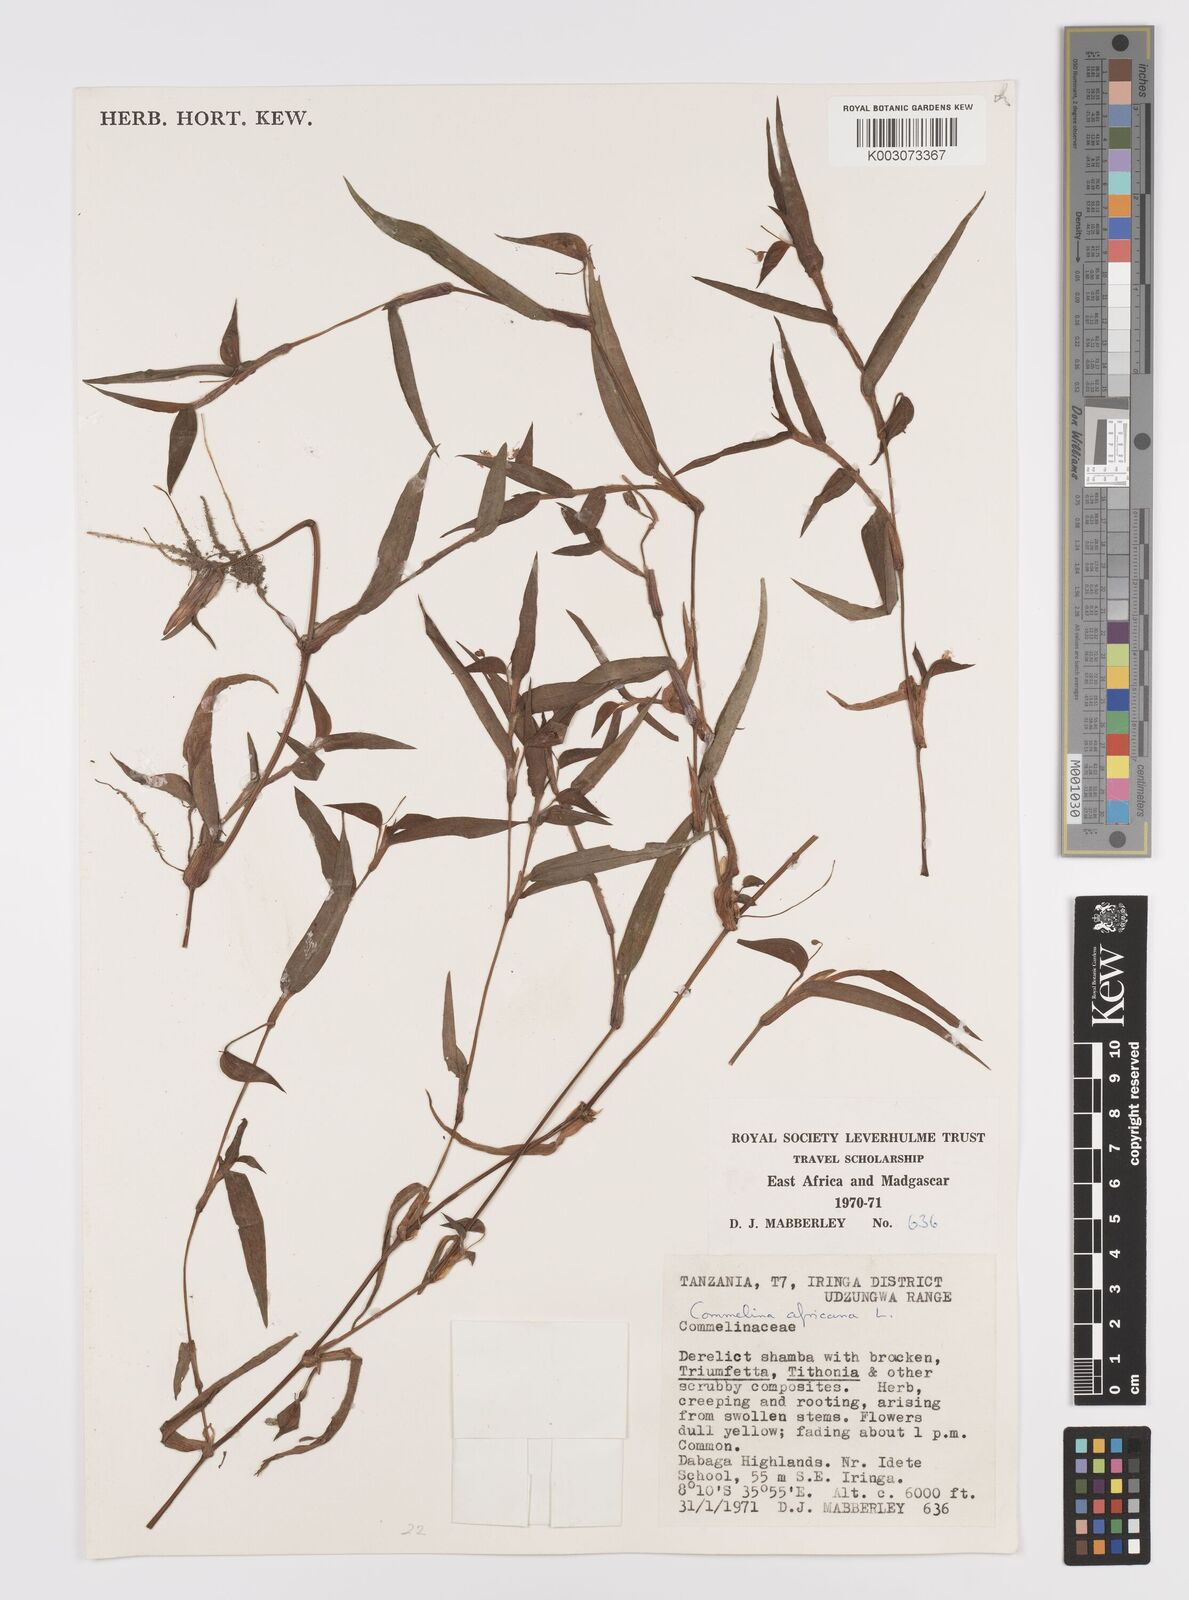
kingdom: Plantae
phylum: Tracheophyta
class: Liliopsida
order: Commelinales
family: Commelinaceae
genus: Commelina
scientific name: Commelina africana
